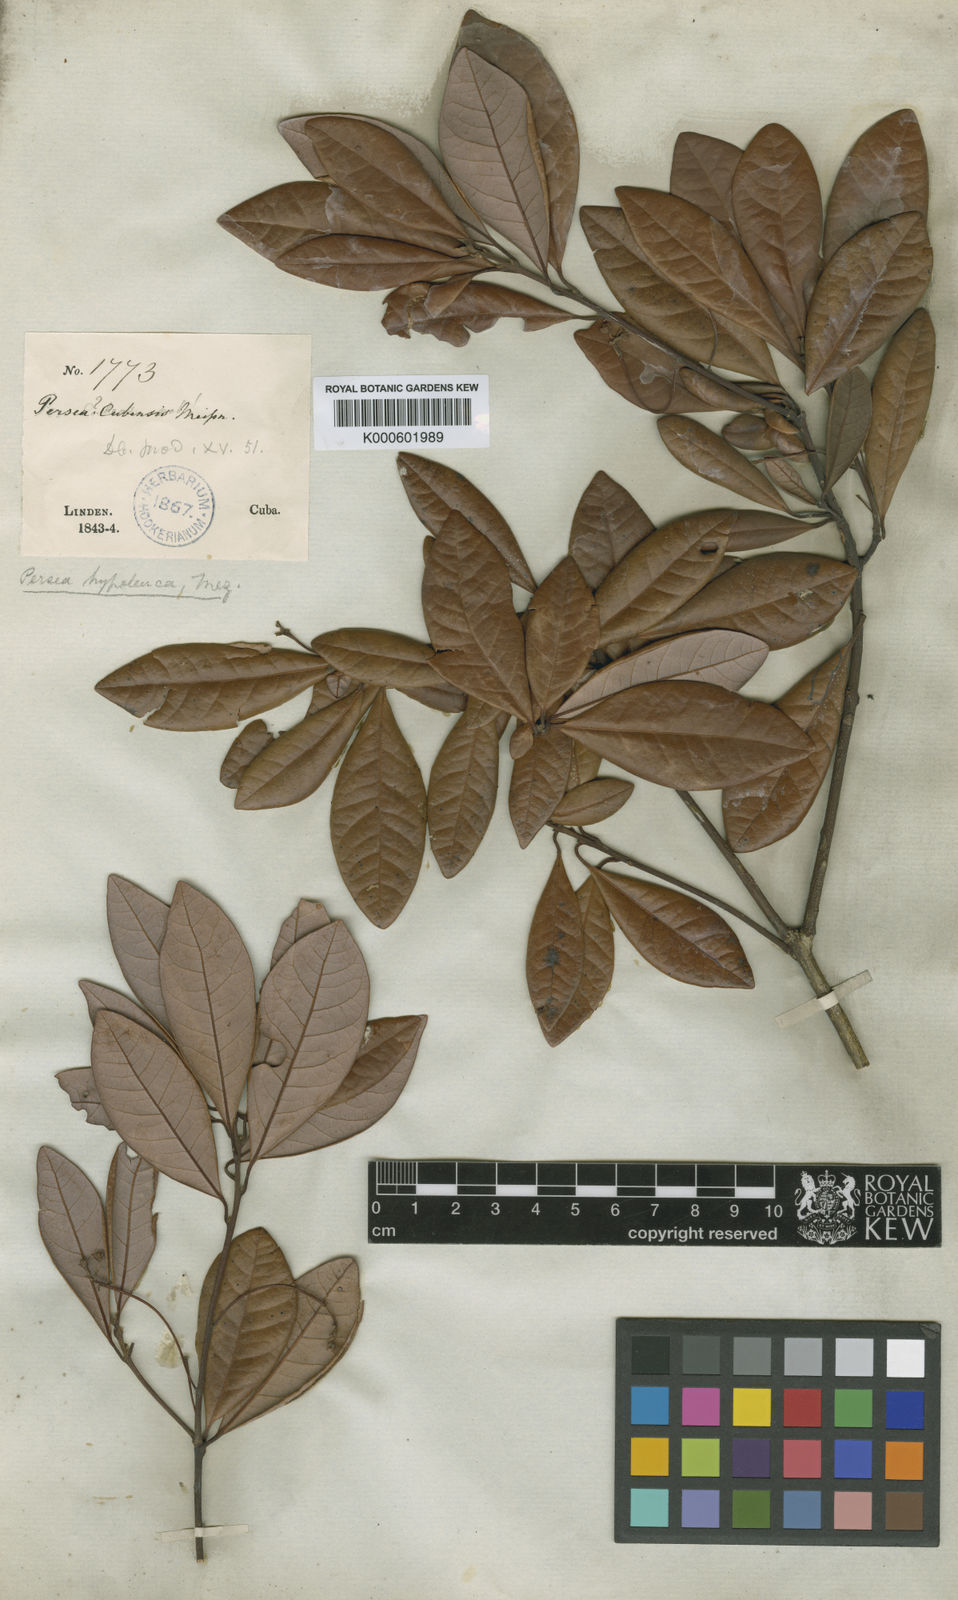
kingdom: Plantae
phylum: Tracheophyta
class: Magnoliopsida
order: Laurales
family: Lauraceae
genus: Persea
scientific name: Persea hypoleuca
